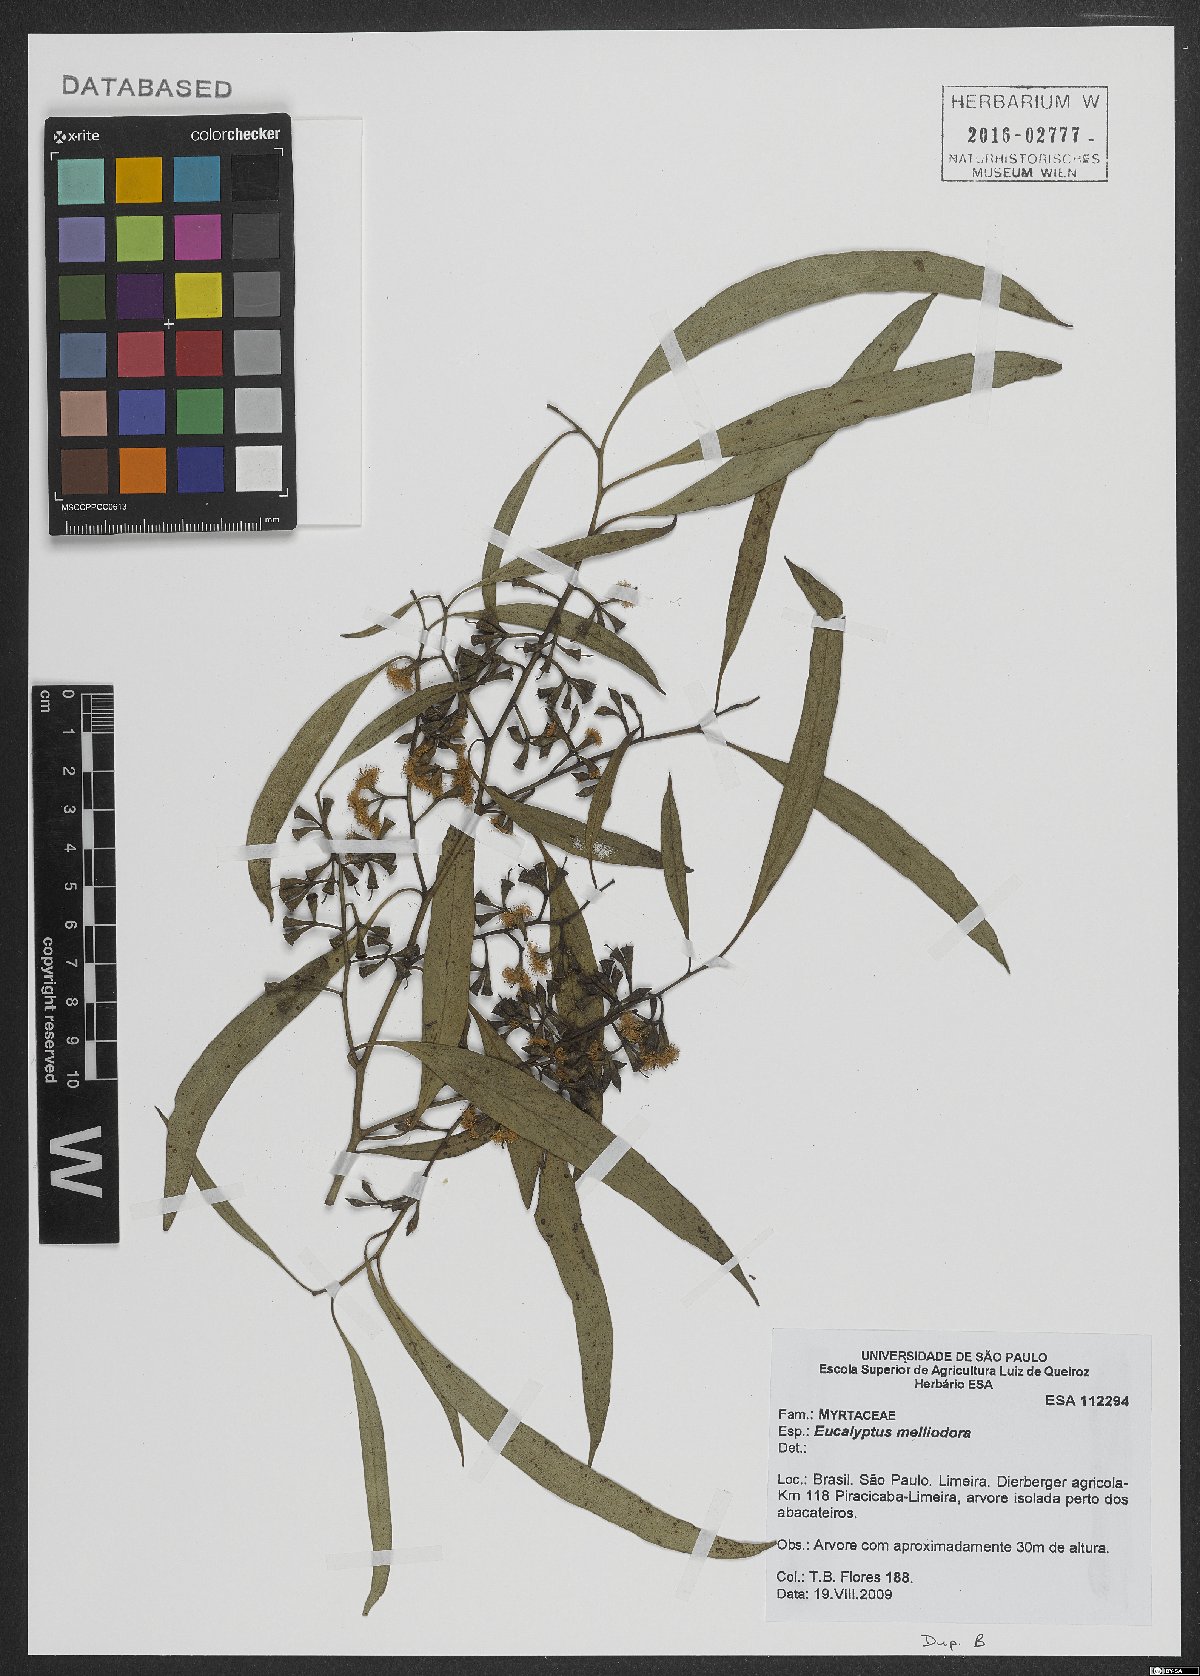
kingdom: Plantae
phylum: Tracheophyta
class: Magnoliopsida
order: Myrtales
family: Myrtaceae
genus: Eucalyptus
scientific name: Eucalyptus melliodora
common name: Yellow ironbox
